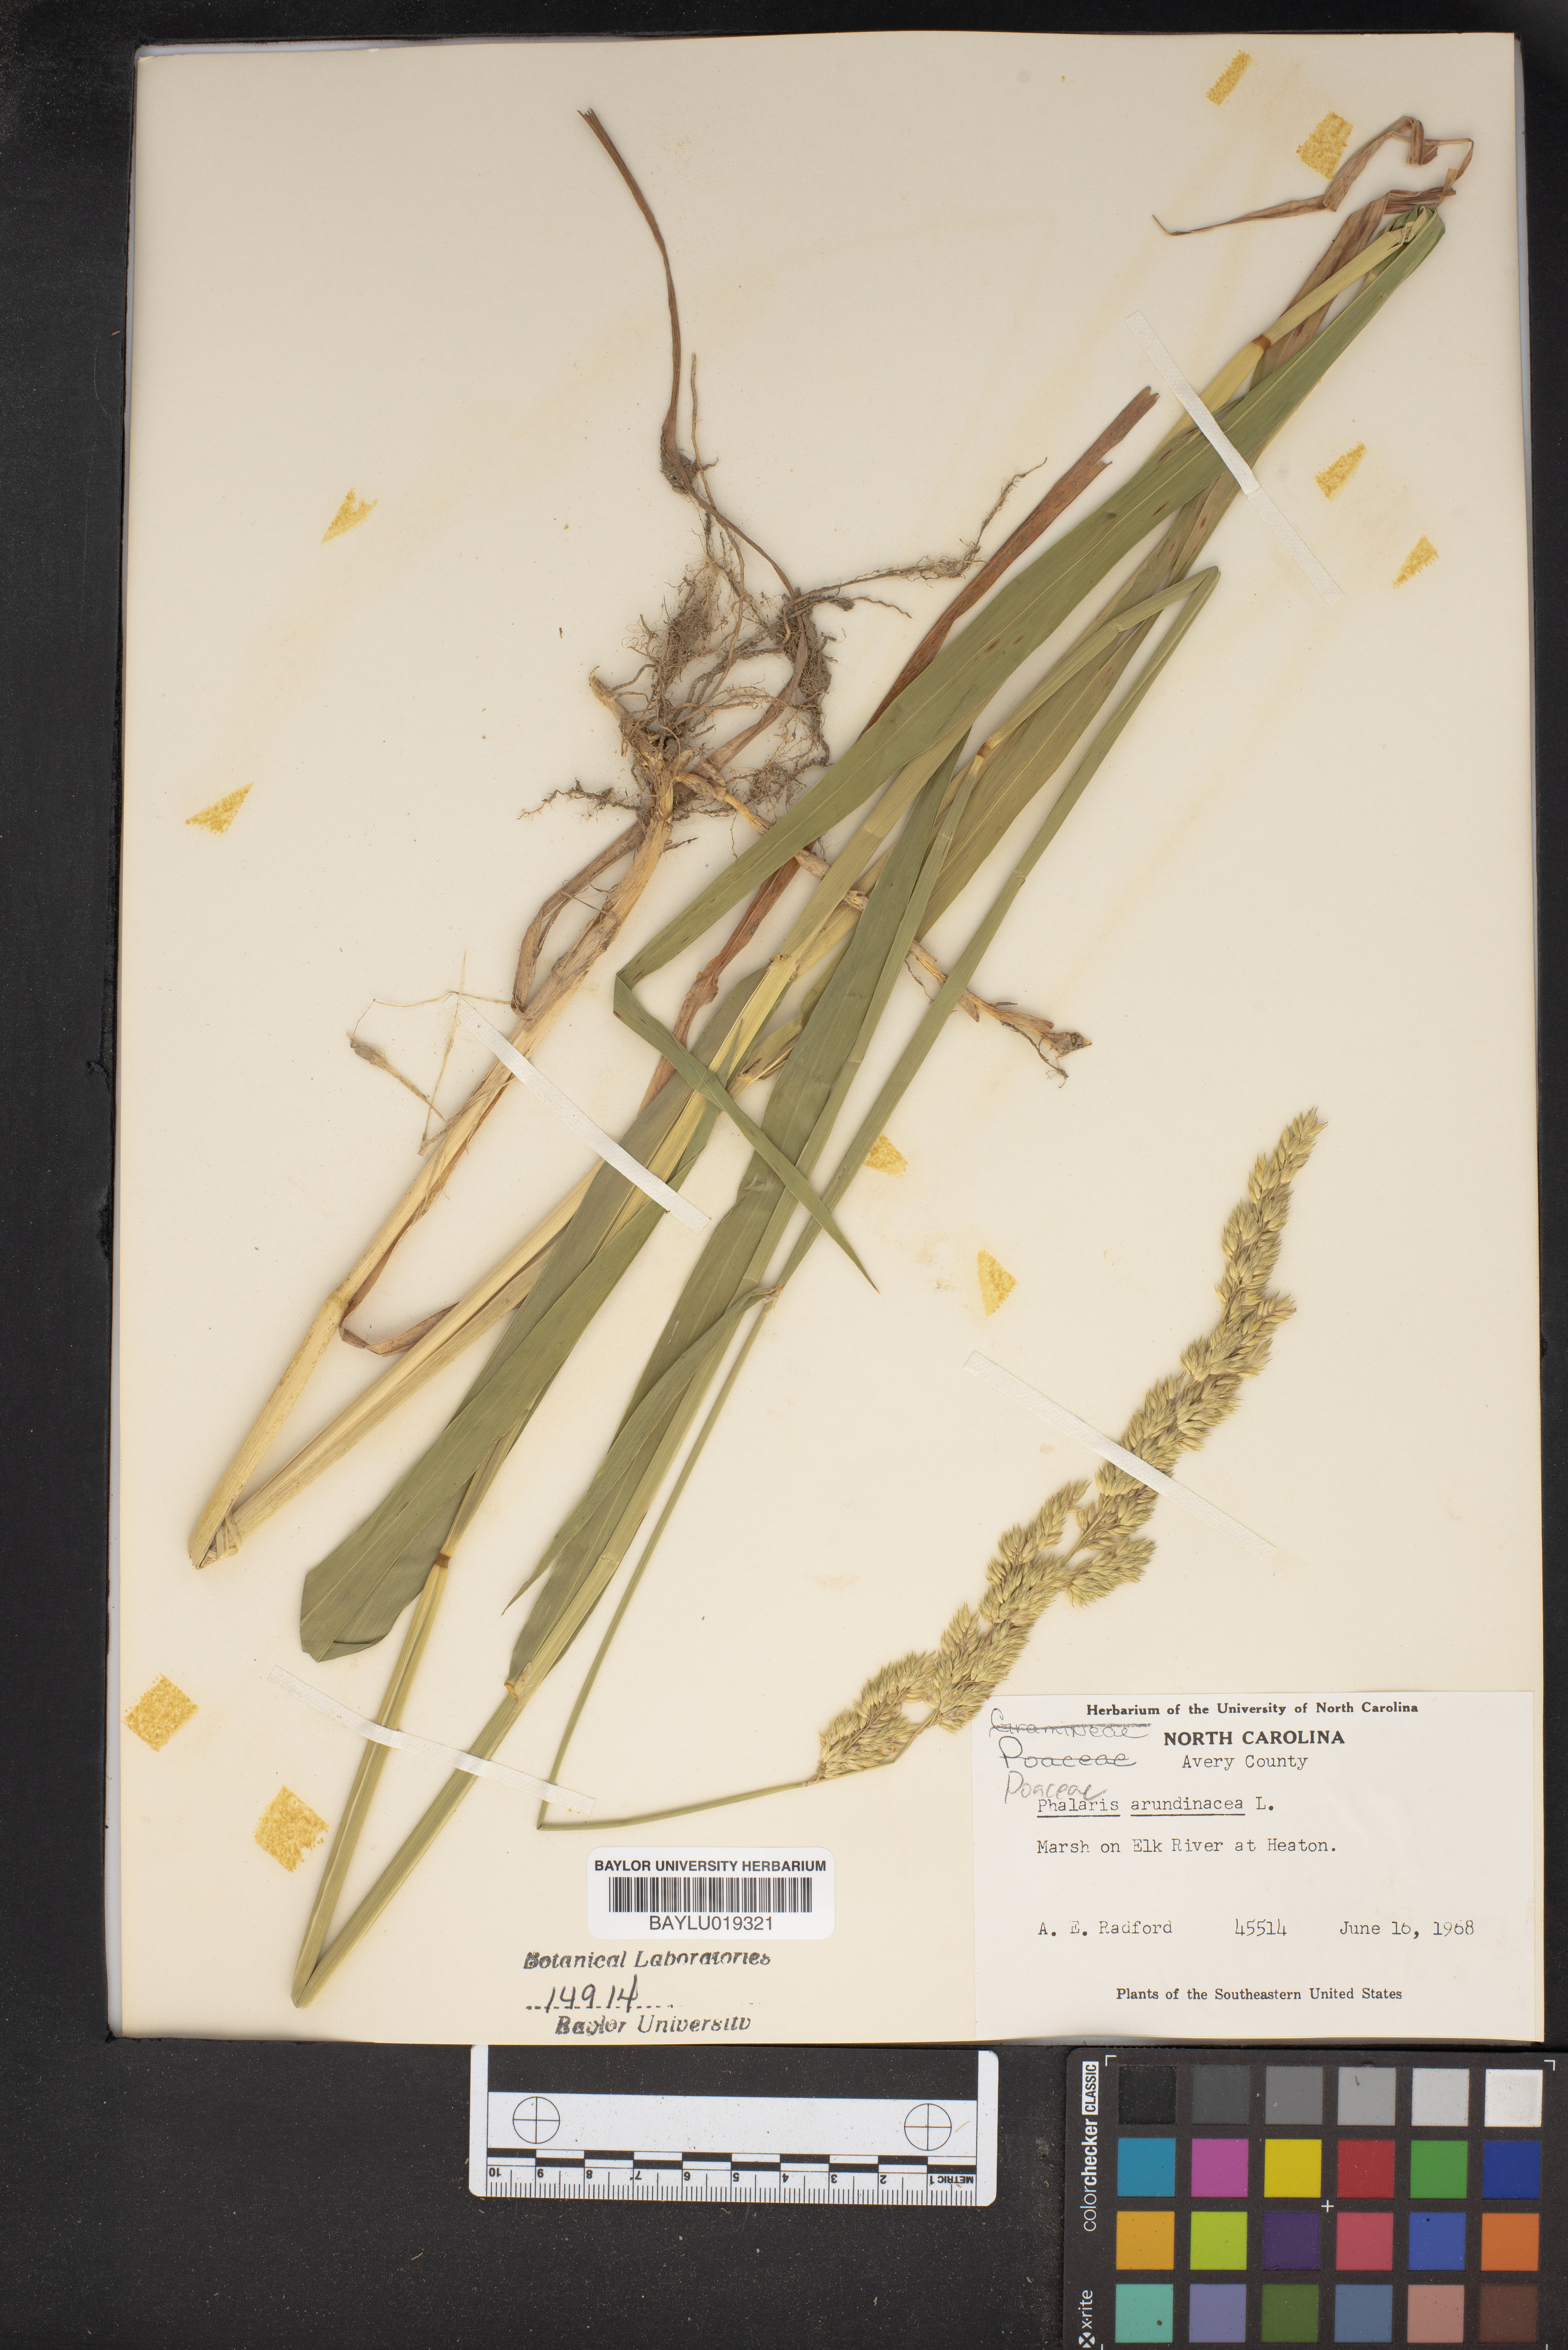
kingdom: Plantae
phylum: Tracheophyta
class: Liliopsida
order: Poales
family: Poaceae
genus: Phalaris
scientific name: Phalaris arundinacea
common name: Reed canary-grass
